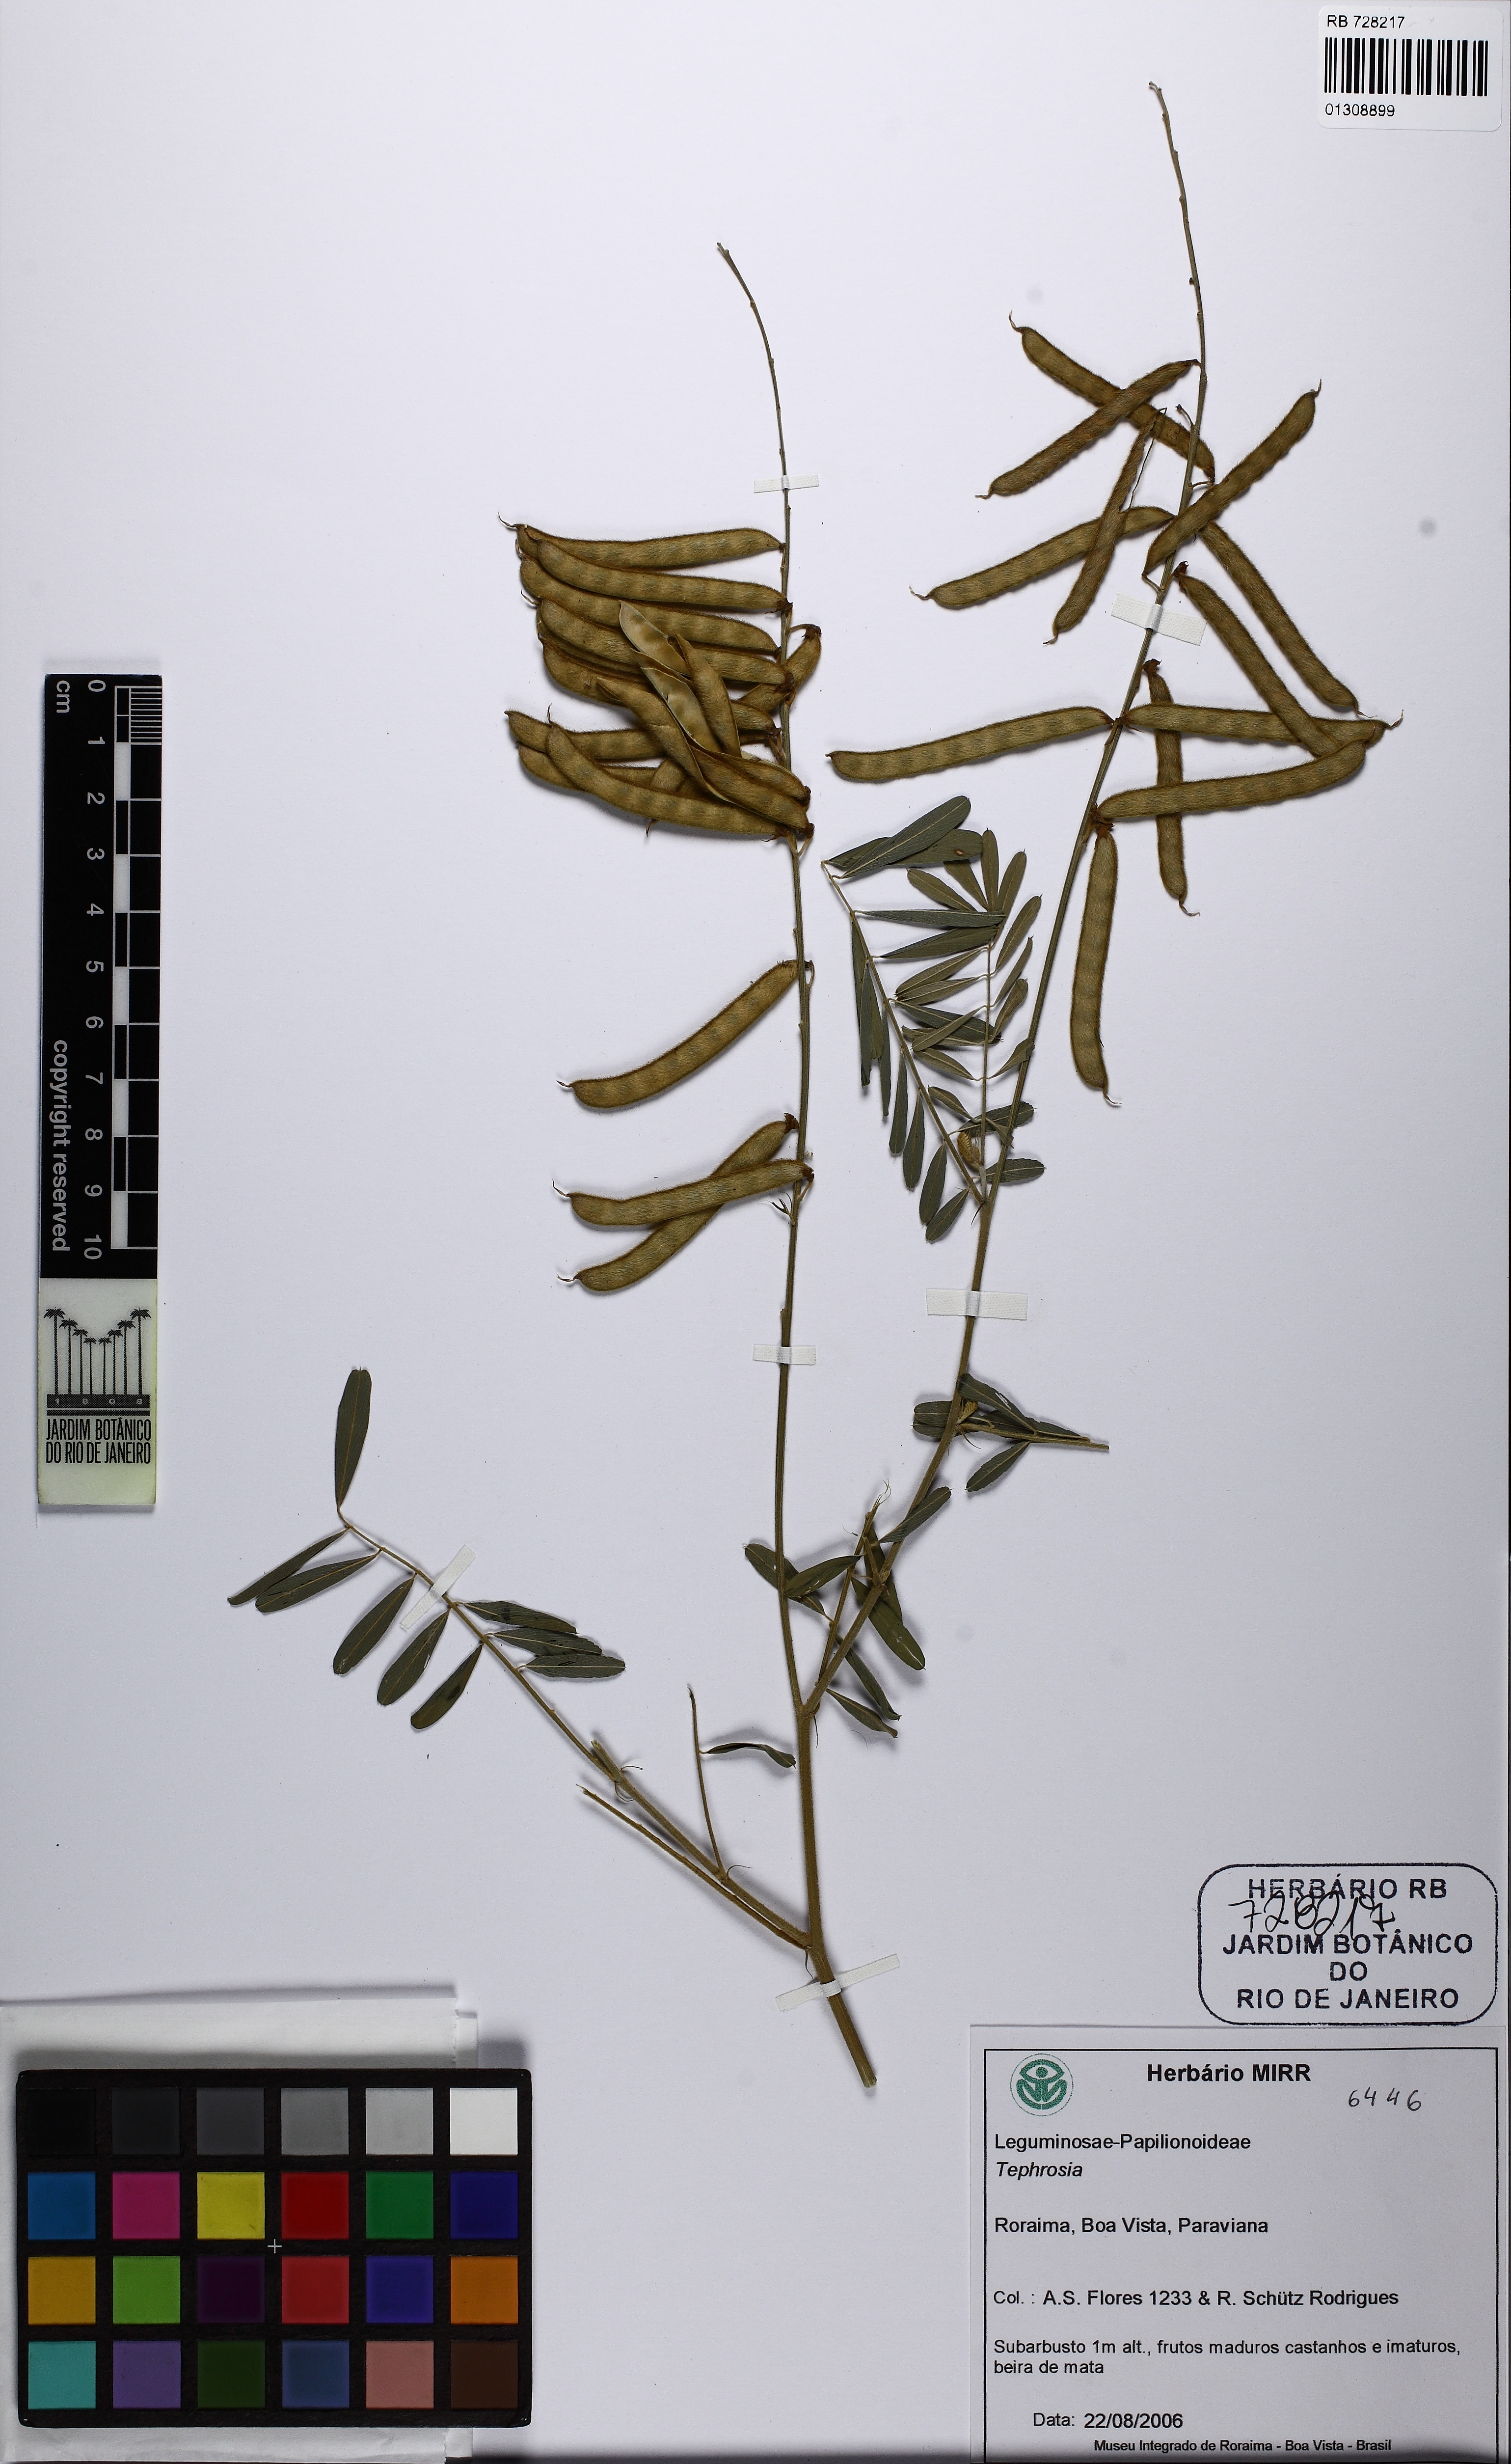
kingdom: Plantae
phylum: Tracheophyta
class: Magnoliopsida
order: Fabales
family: Fabaceae
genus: Tephrosia
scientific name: Tephrosia
